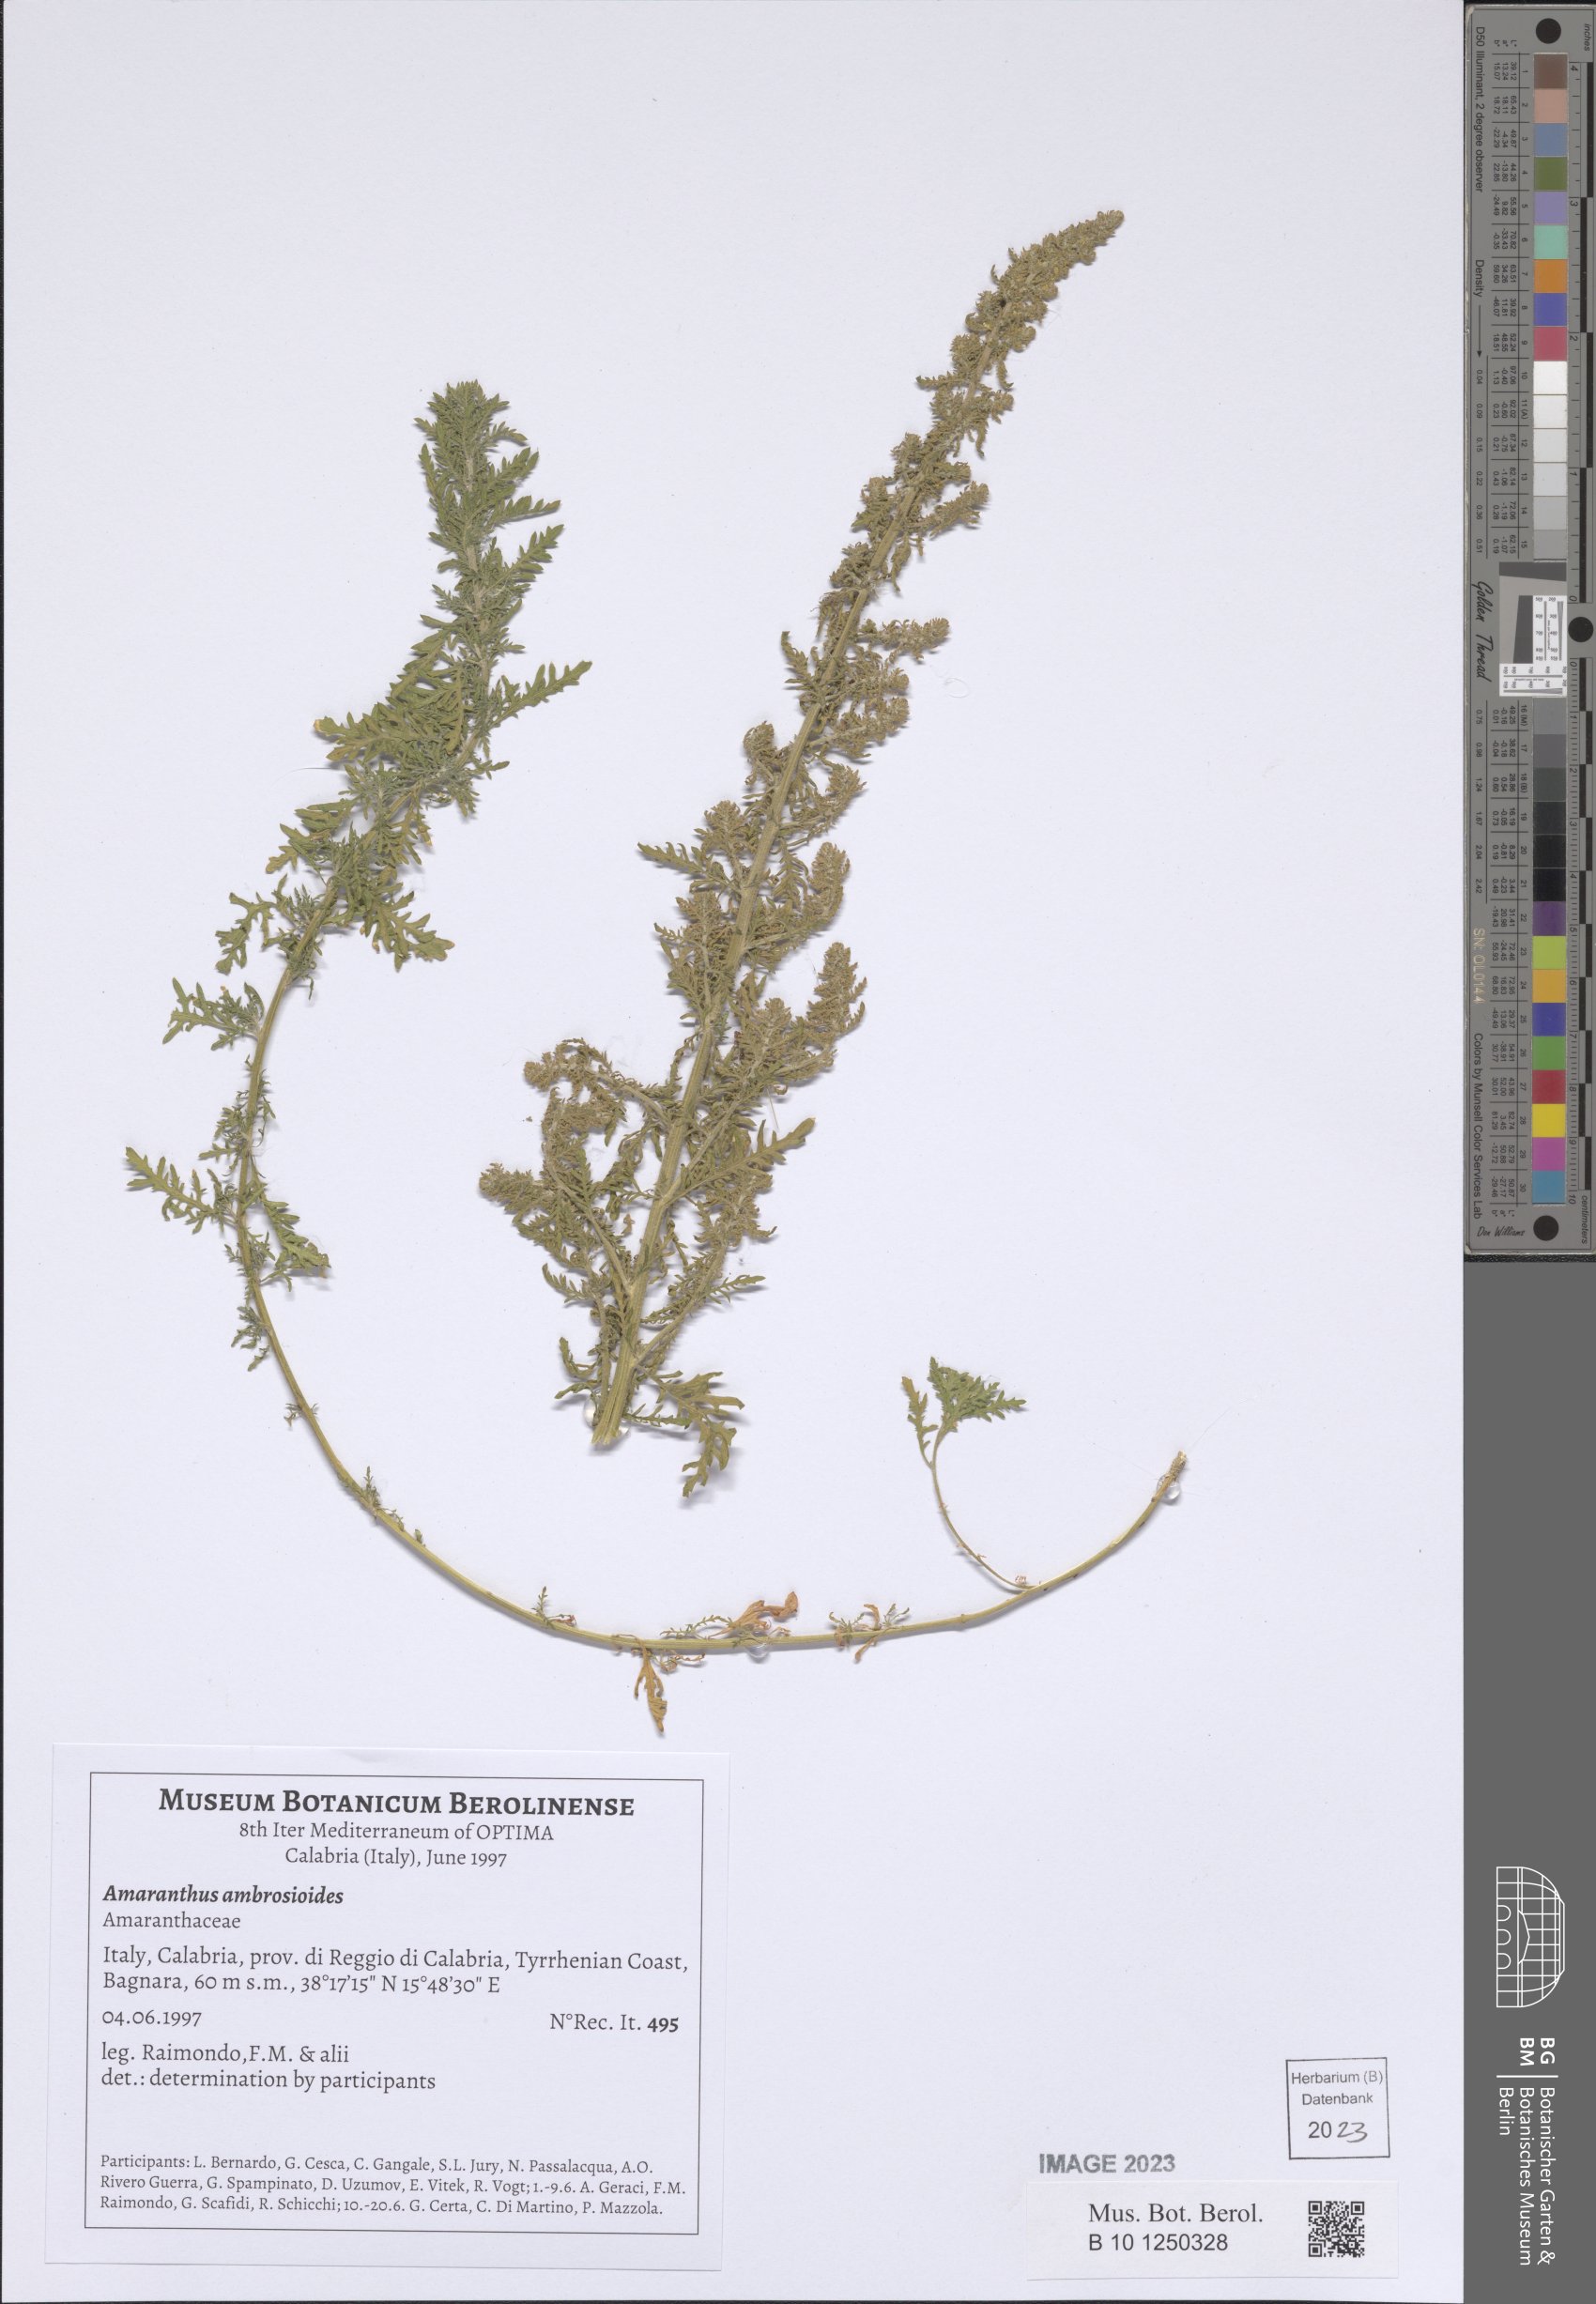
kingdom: Plantae
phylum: Tracheophyta
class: Magnoliopsida
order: Caryophyllales
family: Amaranthaceae
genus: Dysphania
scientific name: Dysphania ambrosioides
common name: Wormseed
